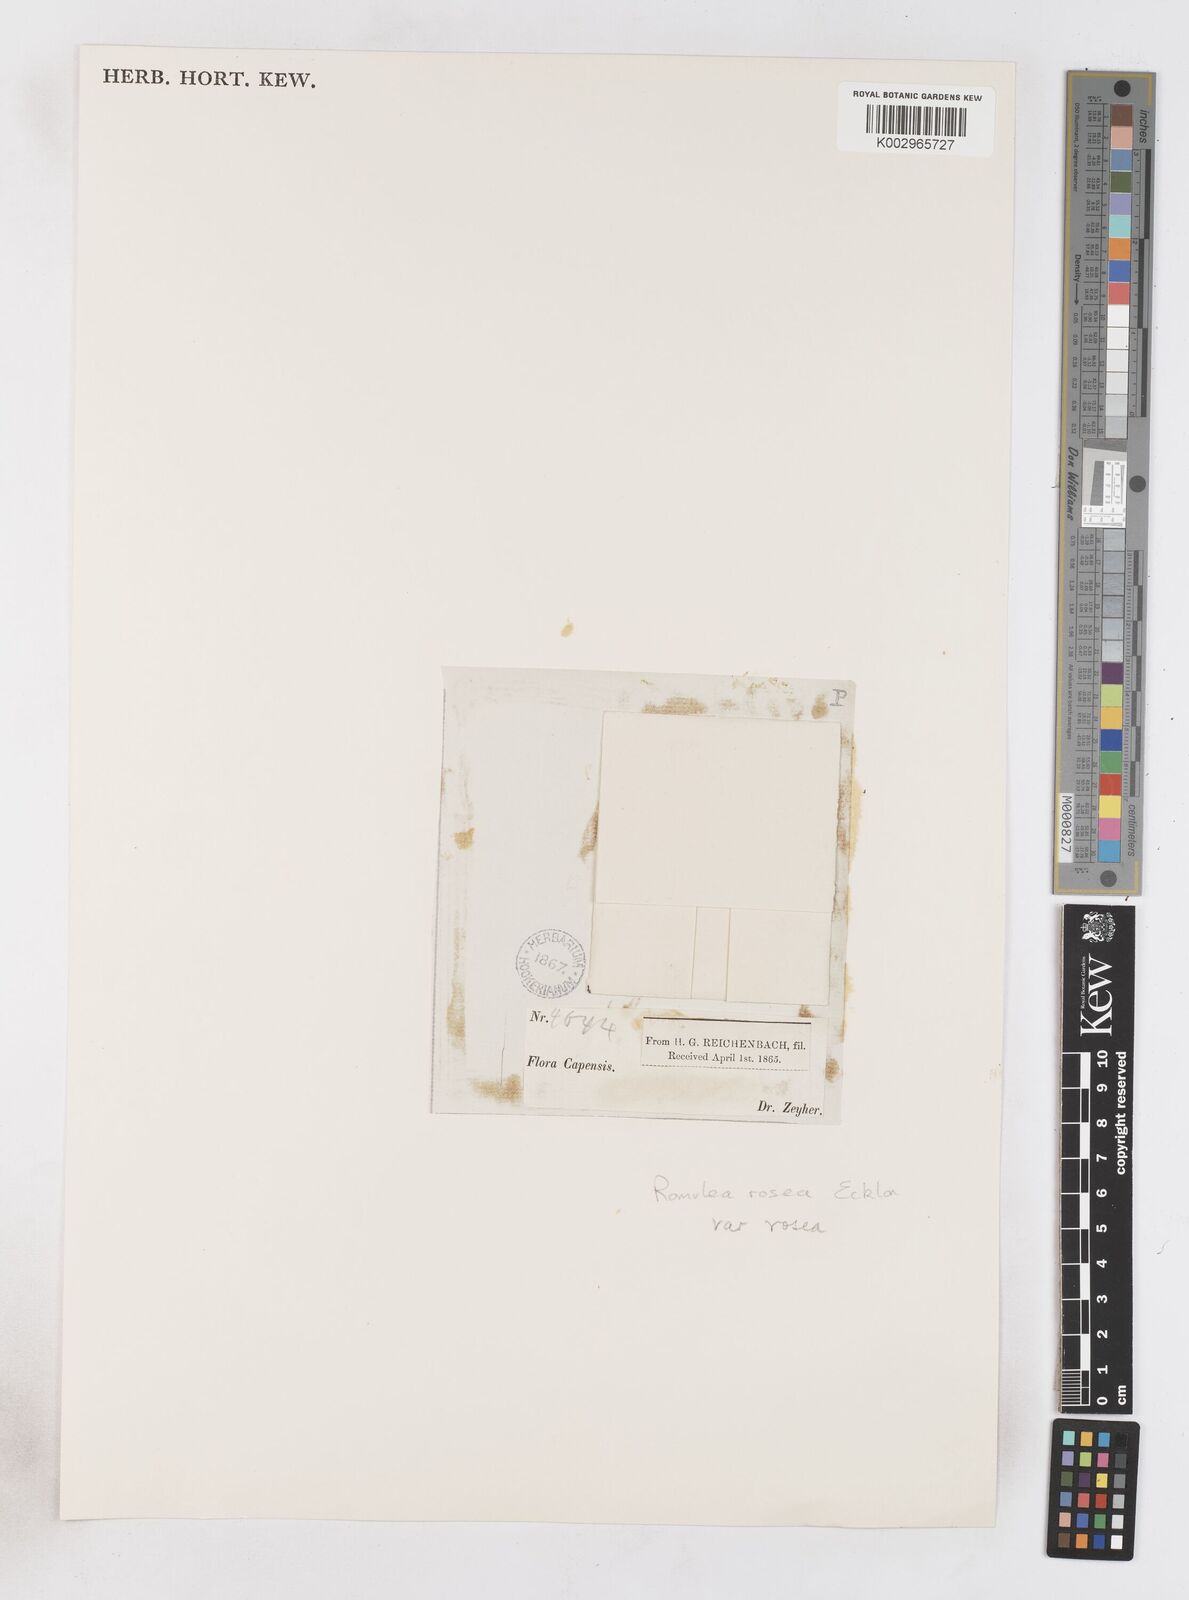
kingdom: Plantae
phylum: Tracheophyta
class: Liliopsida
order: Asparagales
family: Iridaceae
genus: Romulea
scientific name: Romulea rosea
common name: Oniongrass
